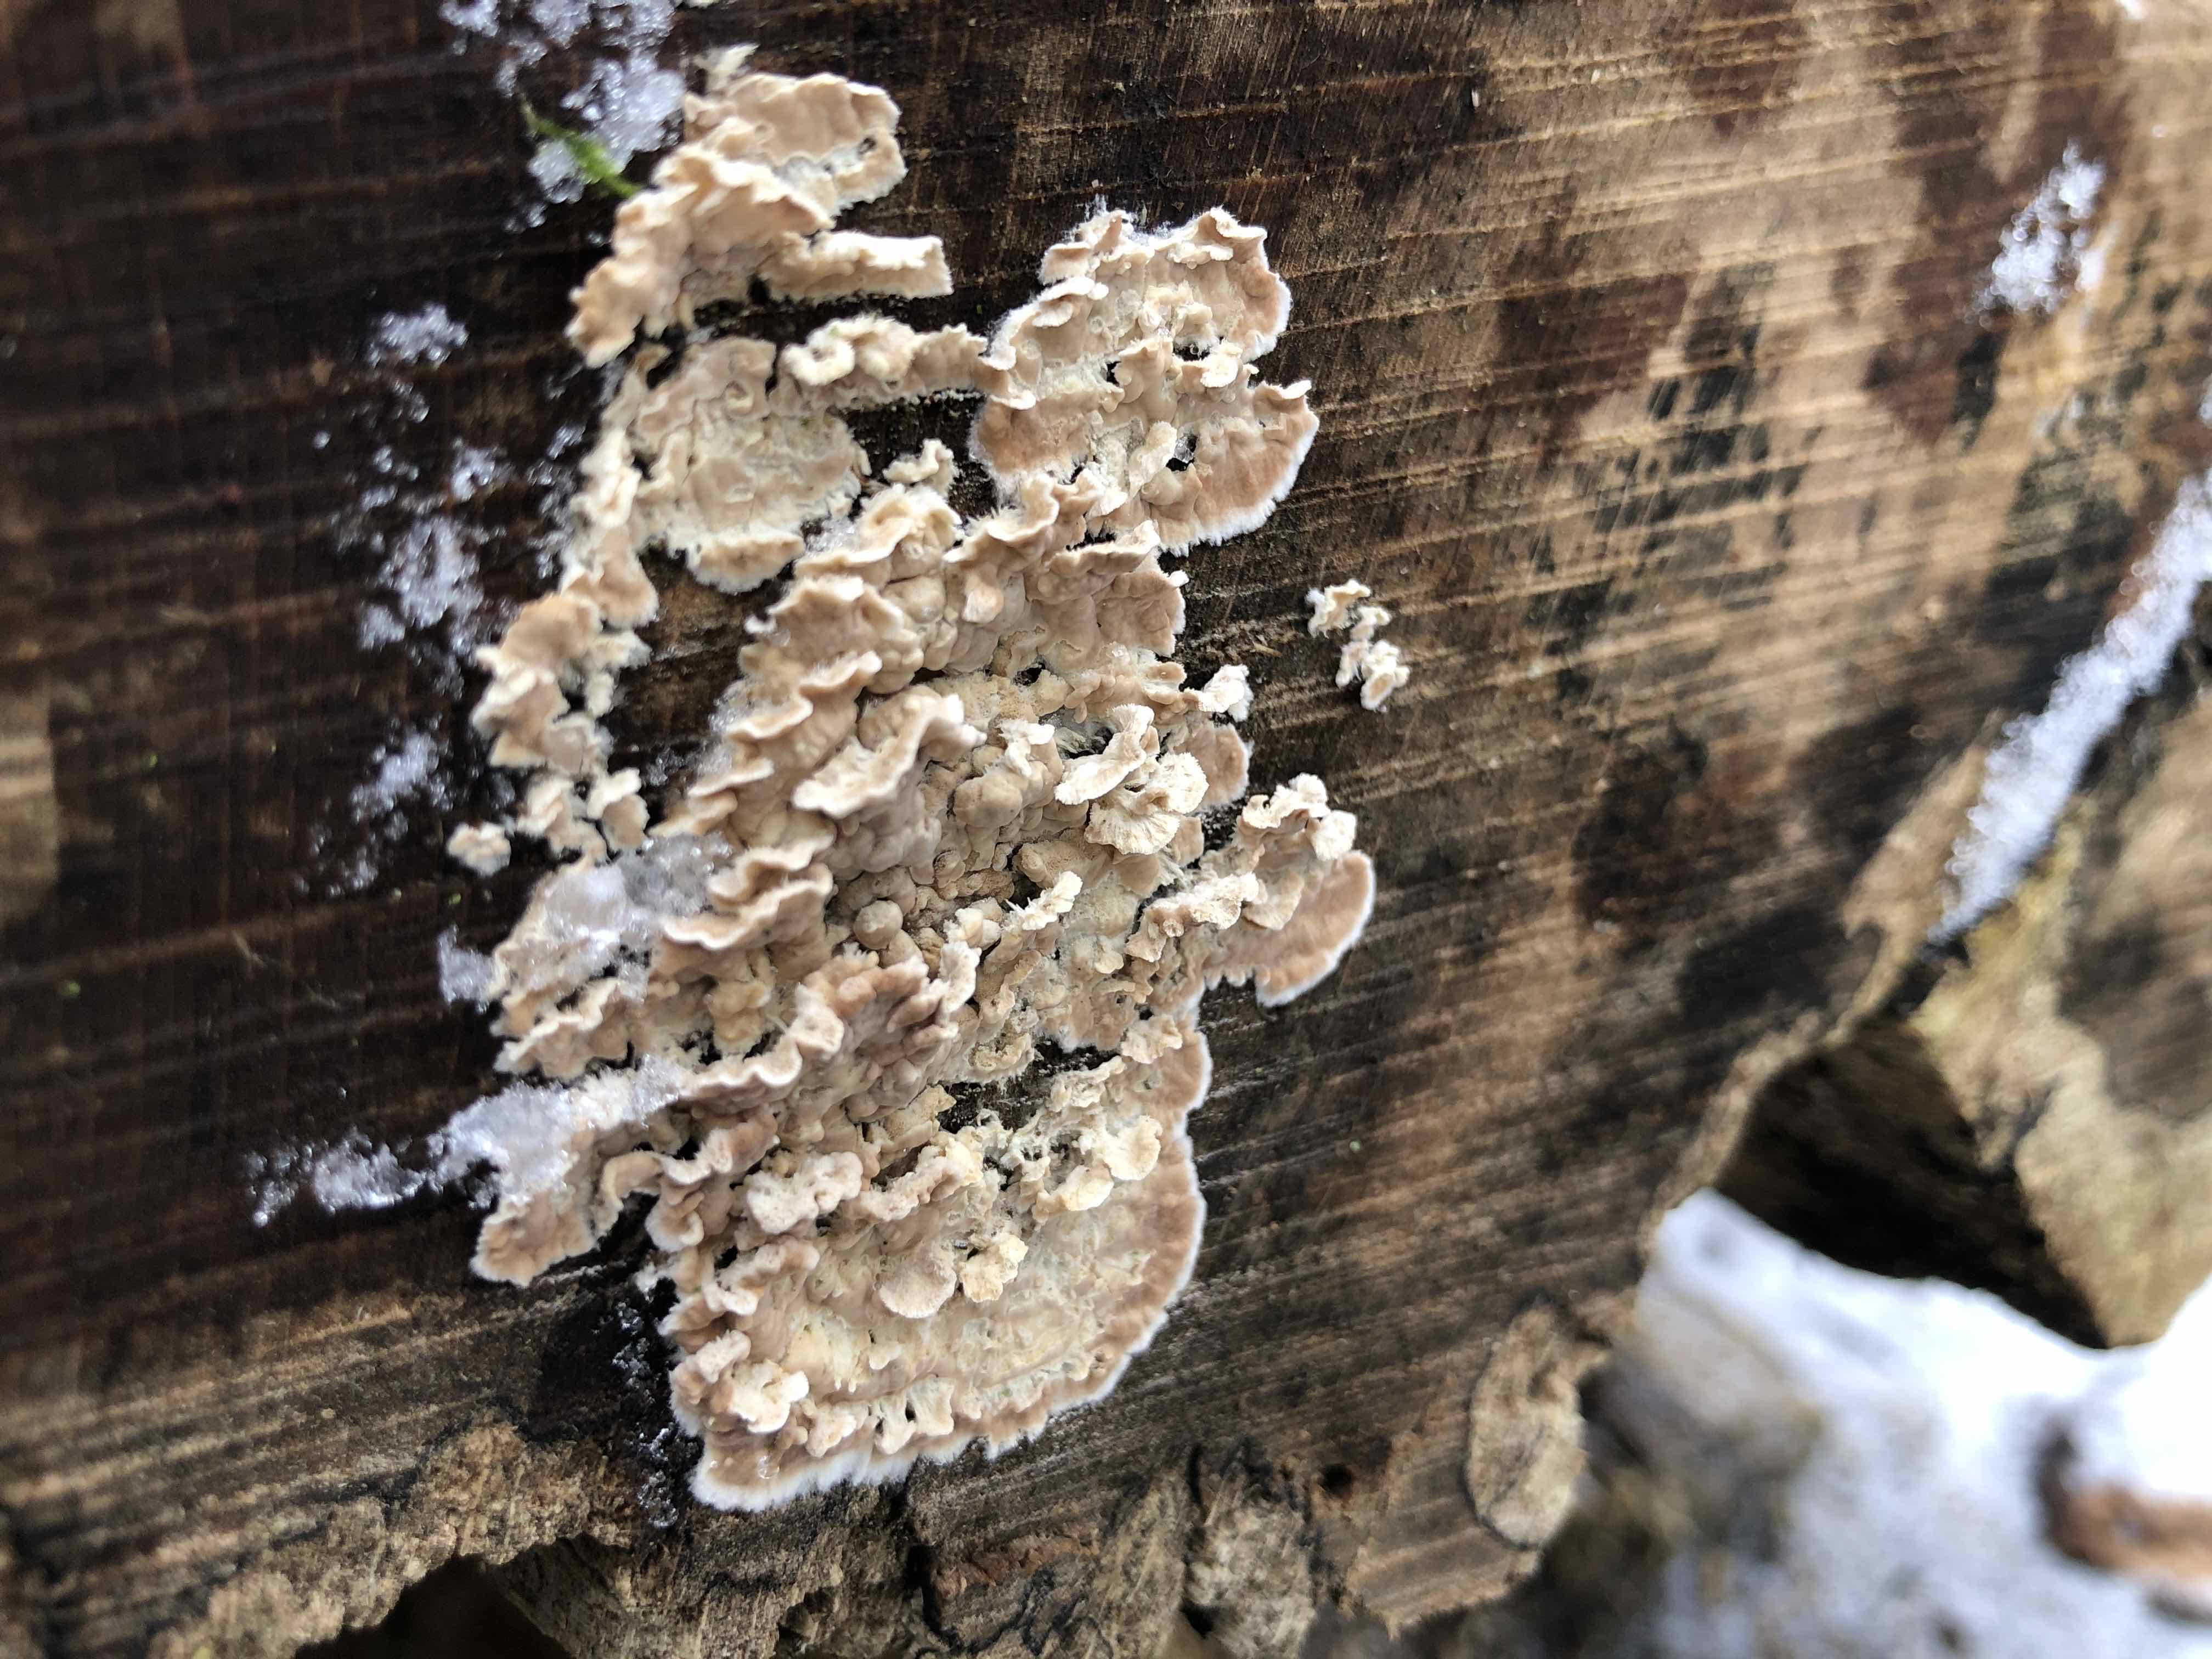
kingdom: Fungi
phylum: Basidiomycota
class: Agaricomycetes
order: Agaricales
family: Physalacriaceae
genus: Cylindrobasidium
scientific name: Cylindrobasidium evolvens
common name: sprækkehinde
